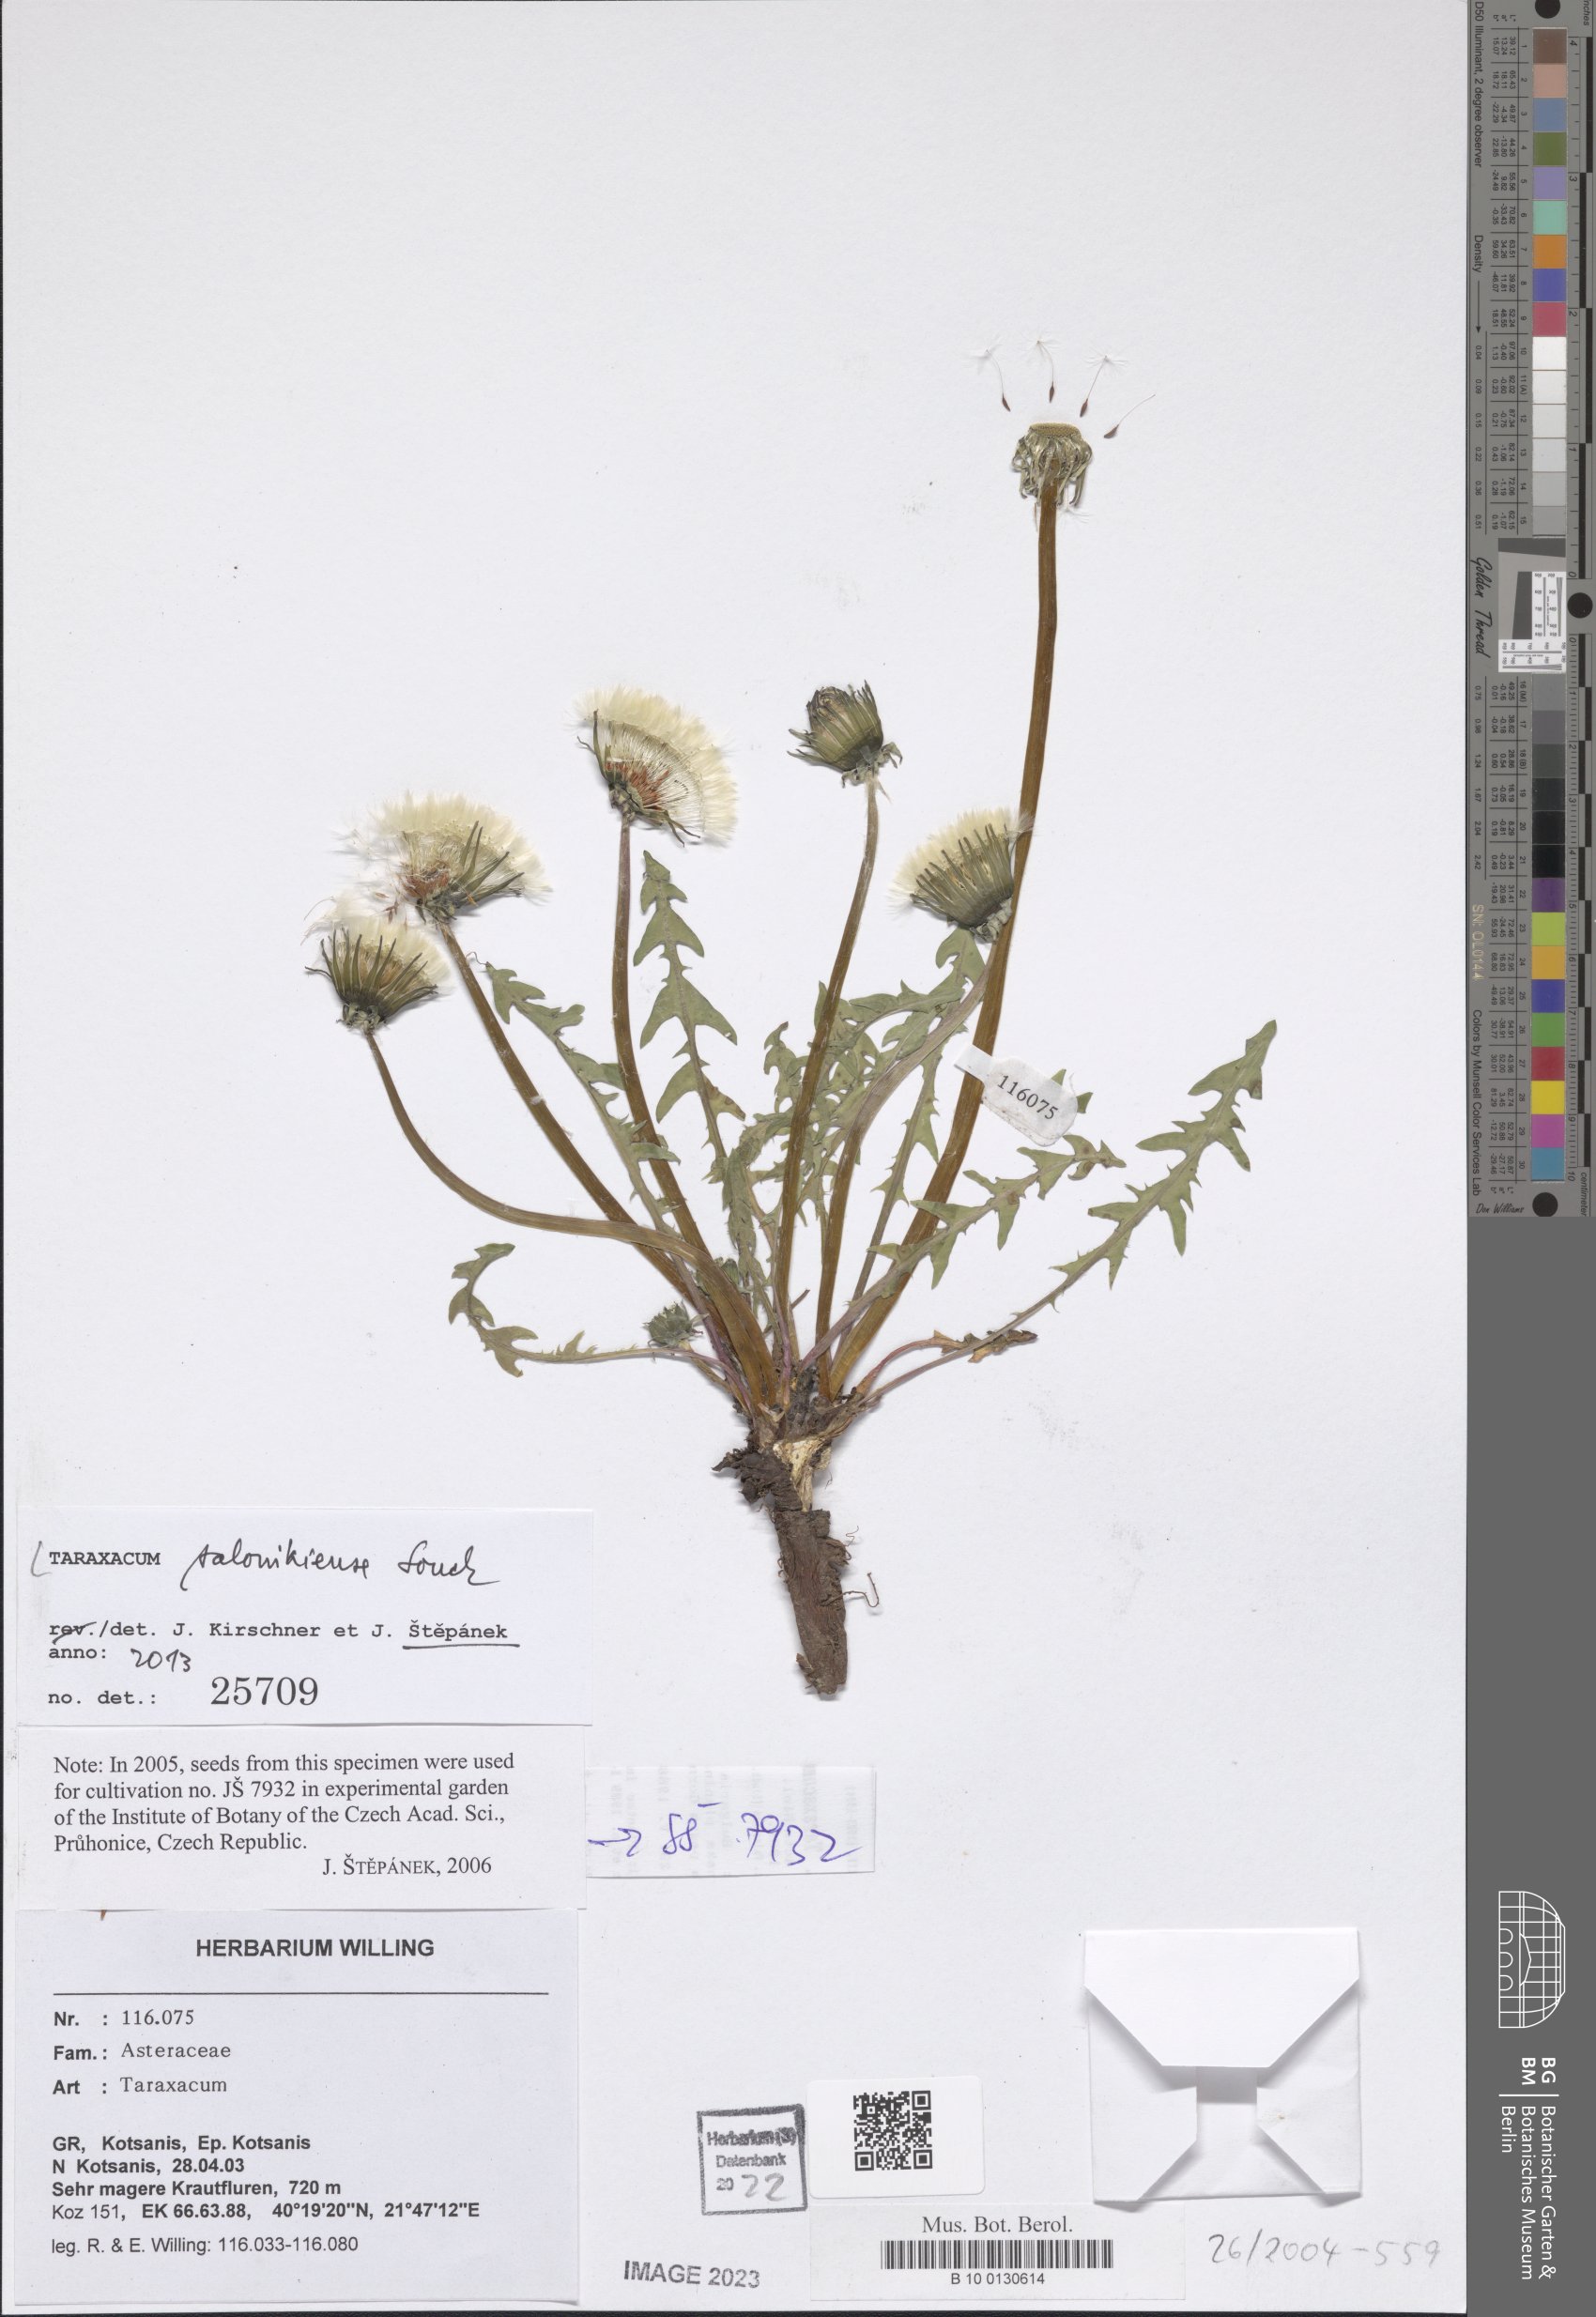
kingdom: Plantae
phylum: Tracheophyta
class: Magnoliopsida
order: Asterales
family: Asteraceae
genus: Taraxacum
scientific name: Taraxacum salonikiense
